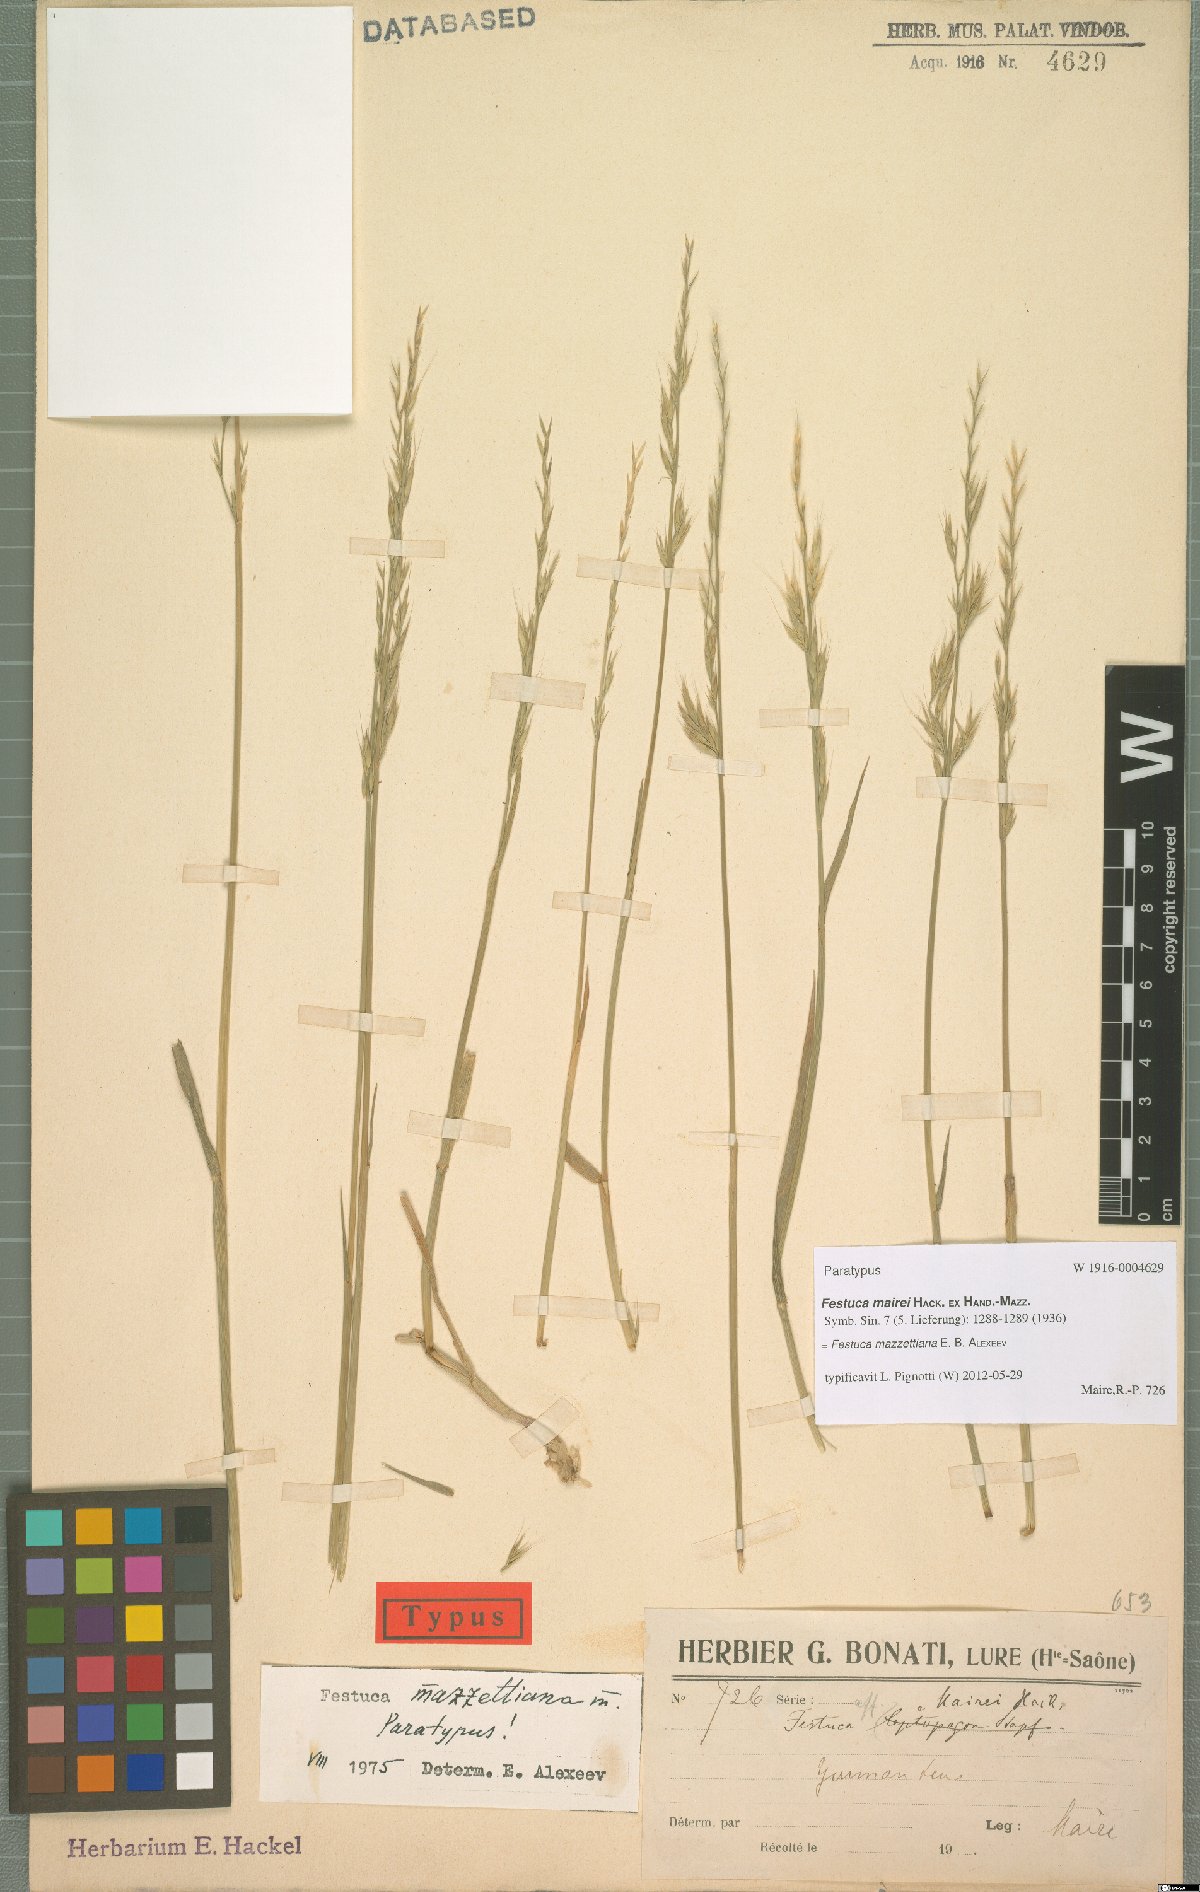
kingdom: Plantae
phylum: Tracheophyta
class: Liliopsida
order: Poales
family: Poaceae
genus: Lolium
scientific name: Lolium mazzettianum
